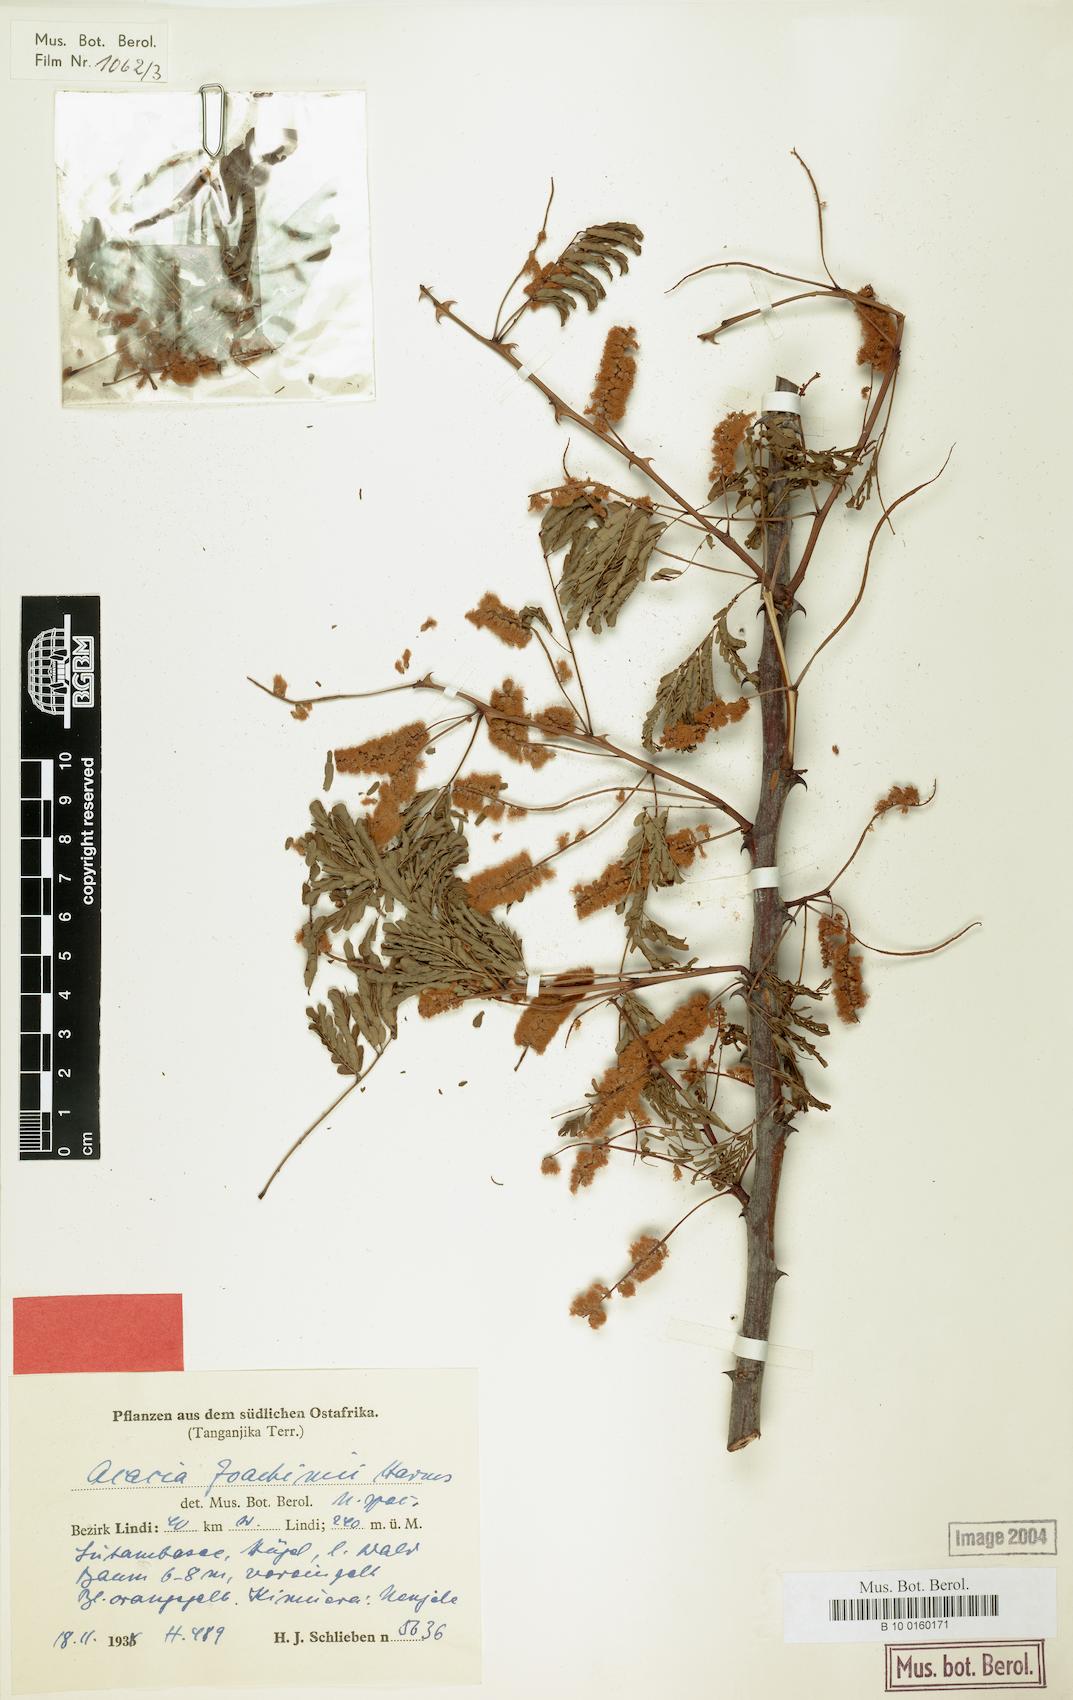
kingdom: Plantae
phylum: Tracheophyta
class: Magnoliopsida
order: Fabales
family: Fabaceae
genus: Senegalia
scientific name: Senegalia goetzei
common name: Purplepod acacia
